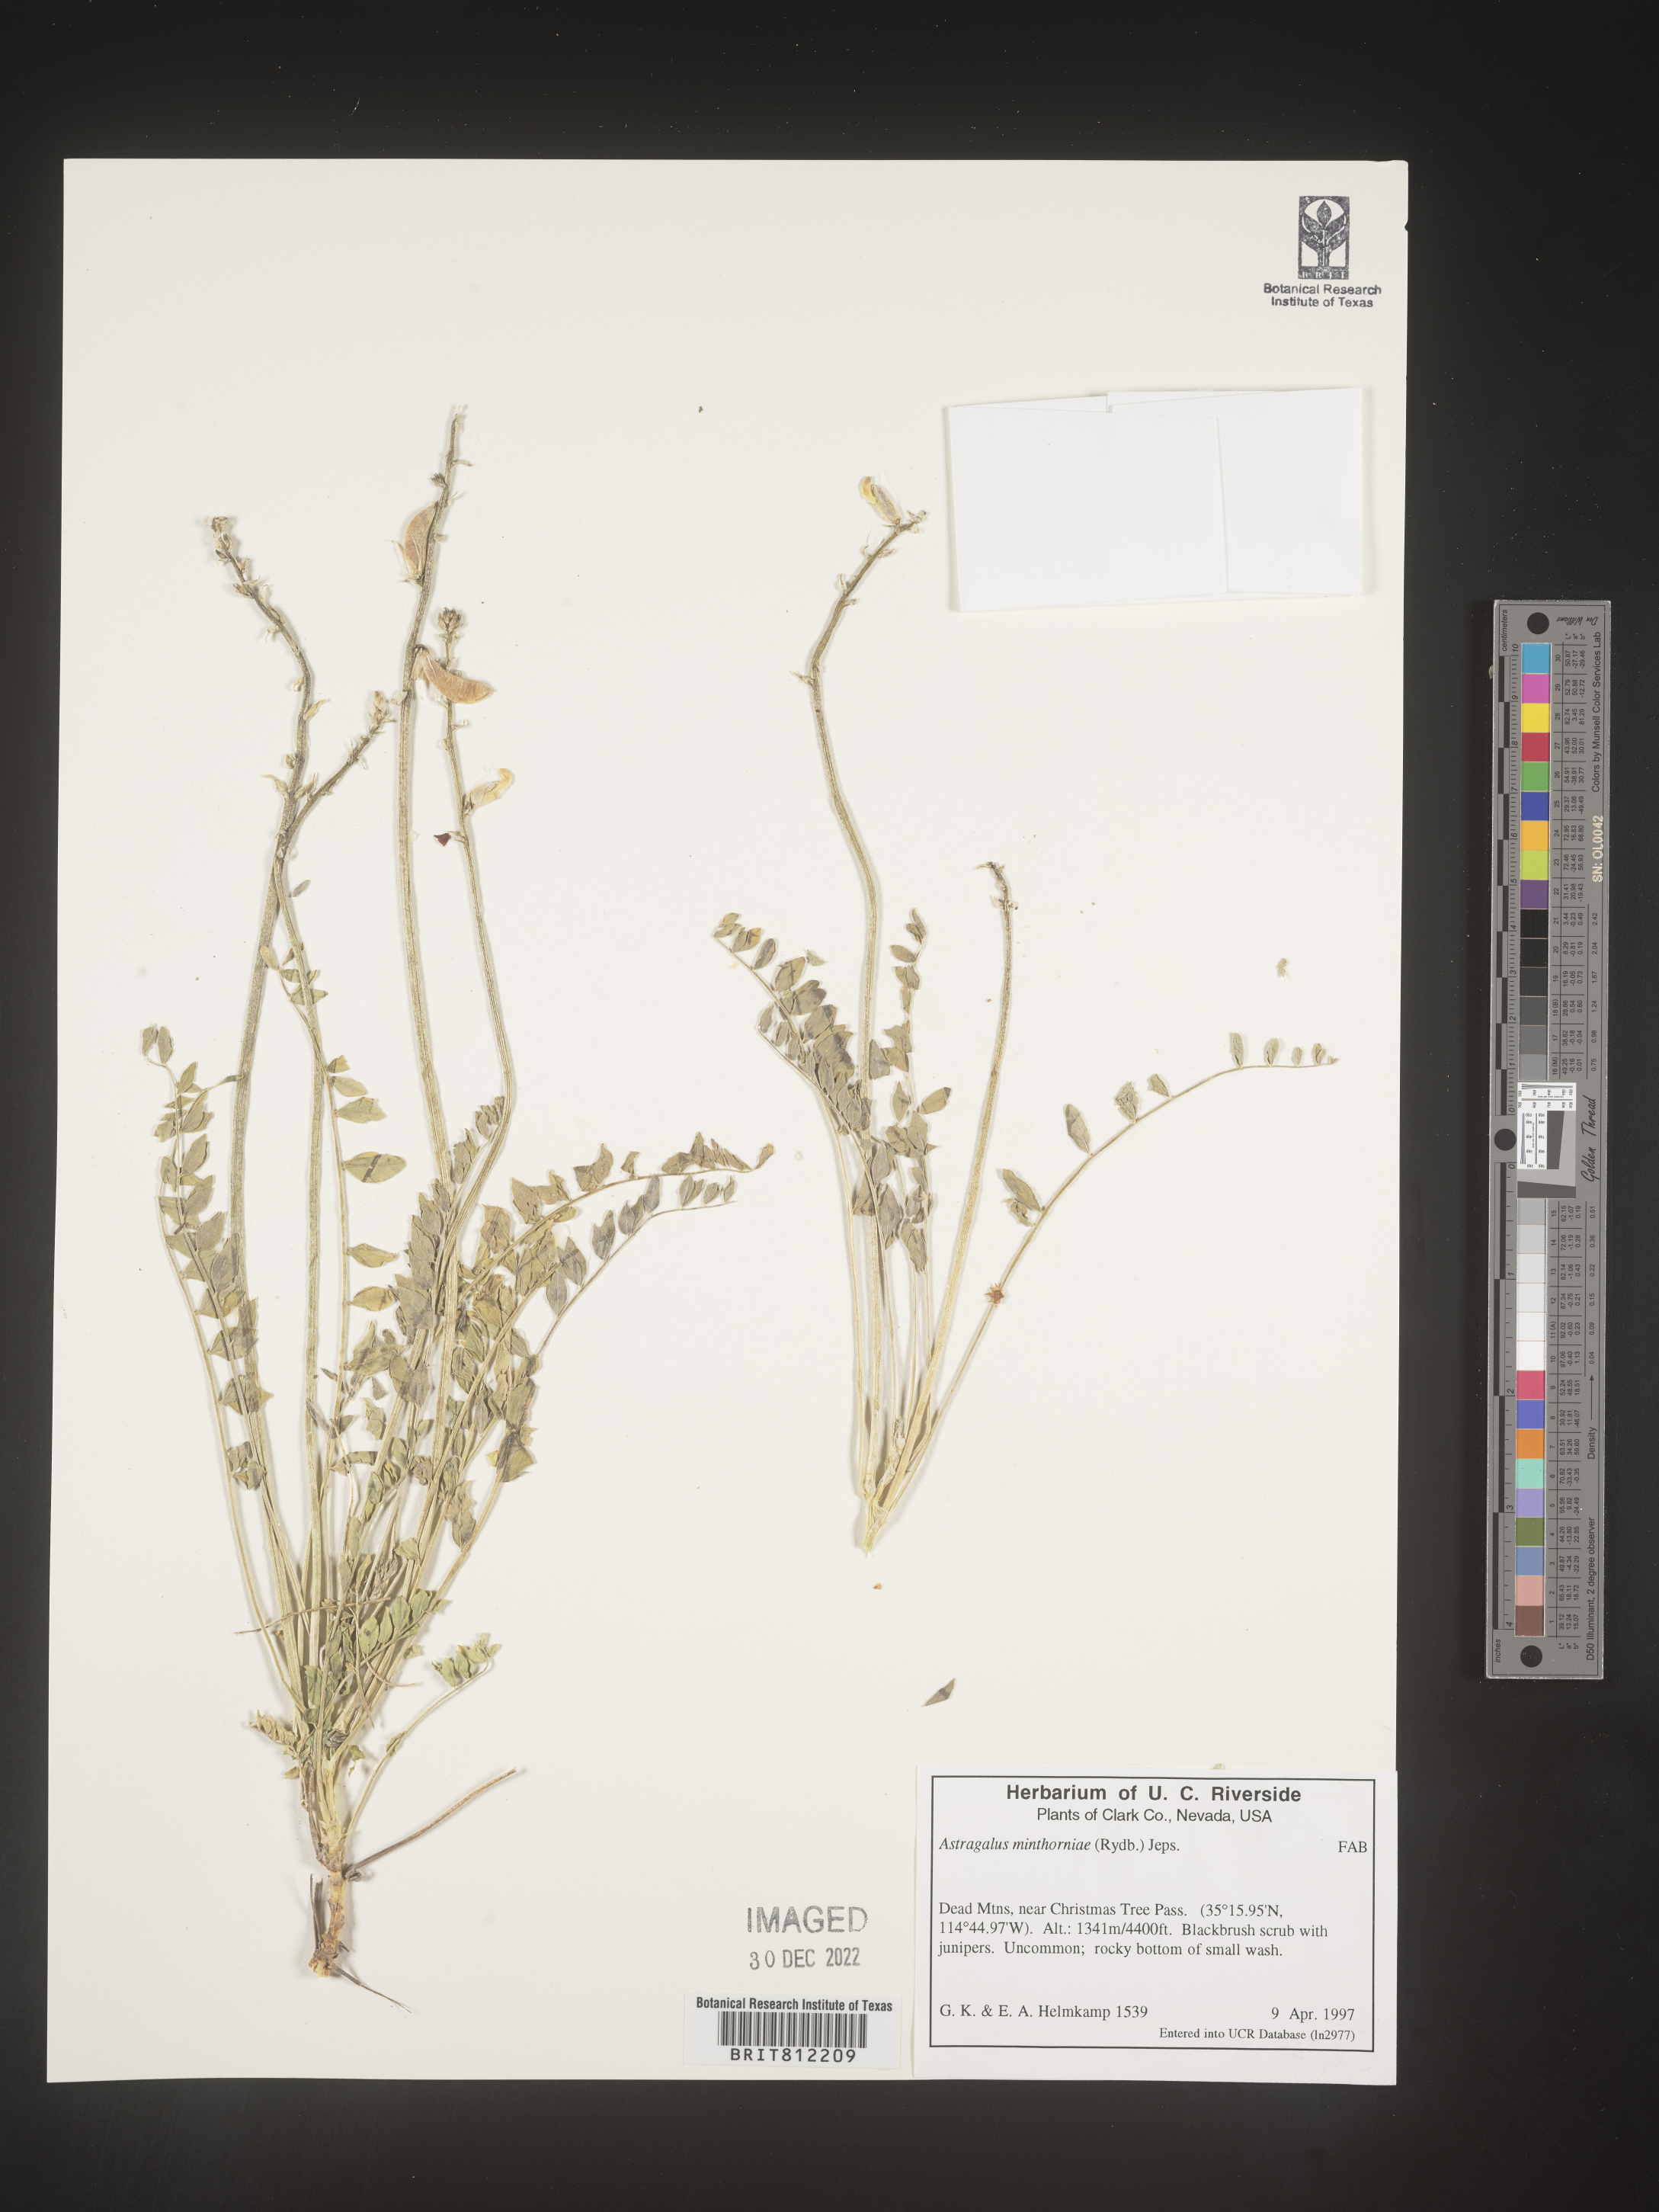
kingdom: Plantae
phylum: Tracheophyta
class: Magnoliopsida
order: Fabales
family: Fabaceae
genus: Astragalus
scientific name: Astragalus
